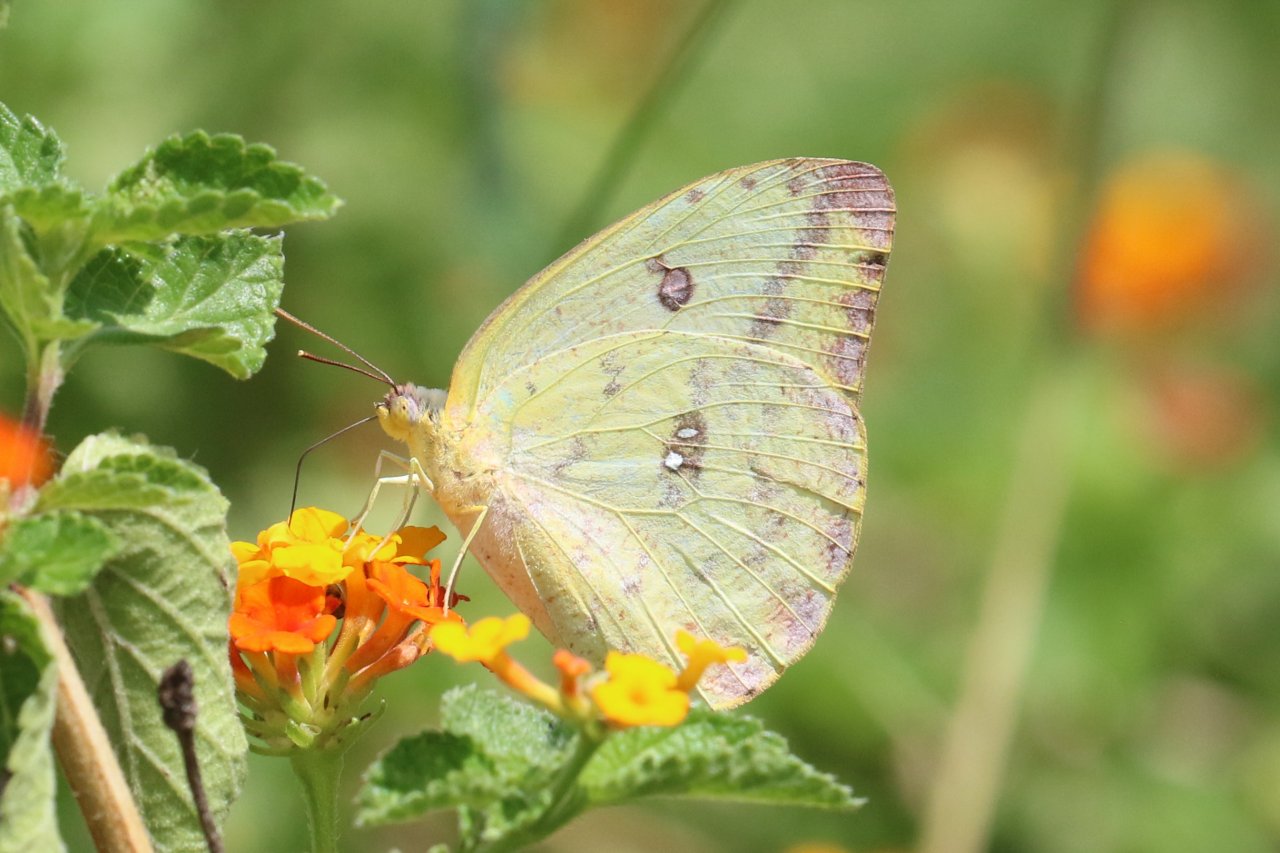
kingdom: Animalia
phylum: Arthropoda
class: Insecta
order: Lepidoptera
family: Pieridae
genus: Phoebis
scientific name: Phoebis agarithe
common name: Large Orange Sulphur
